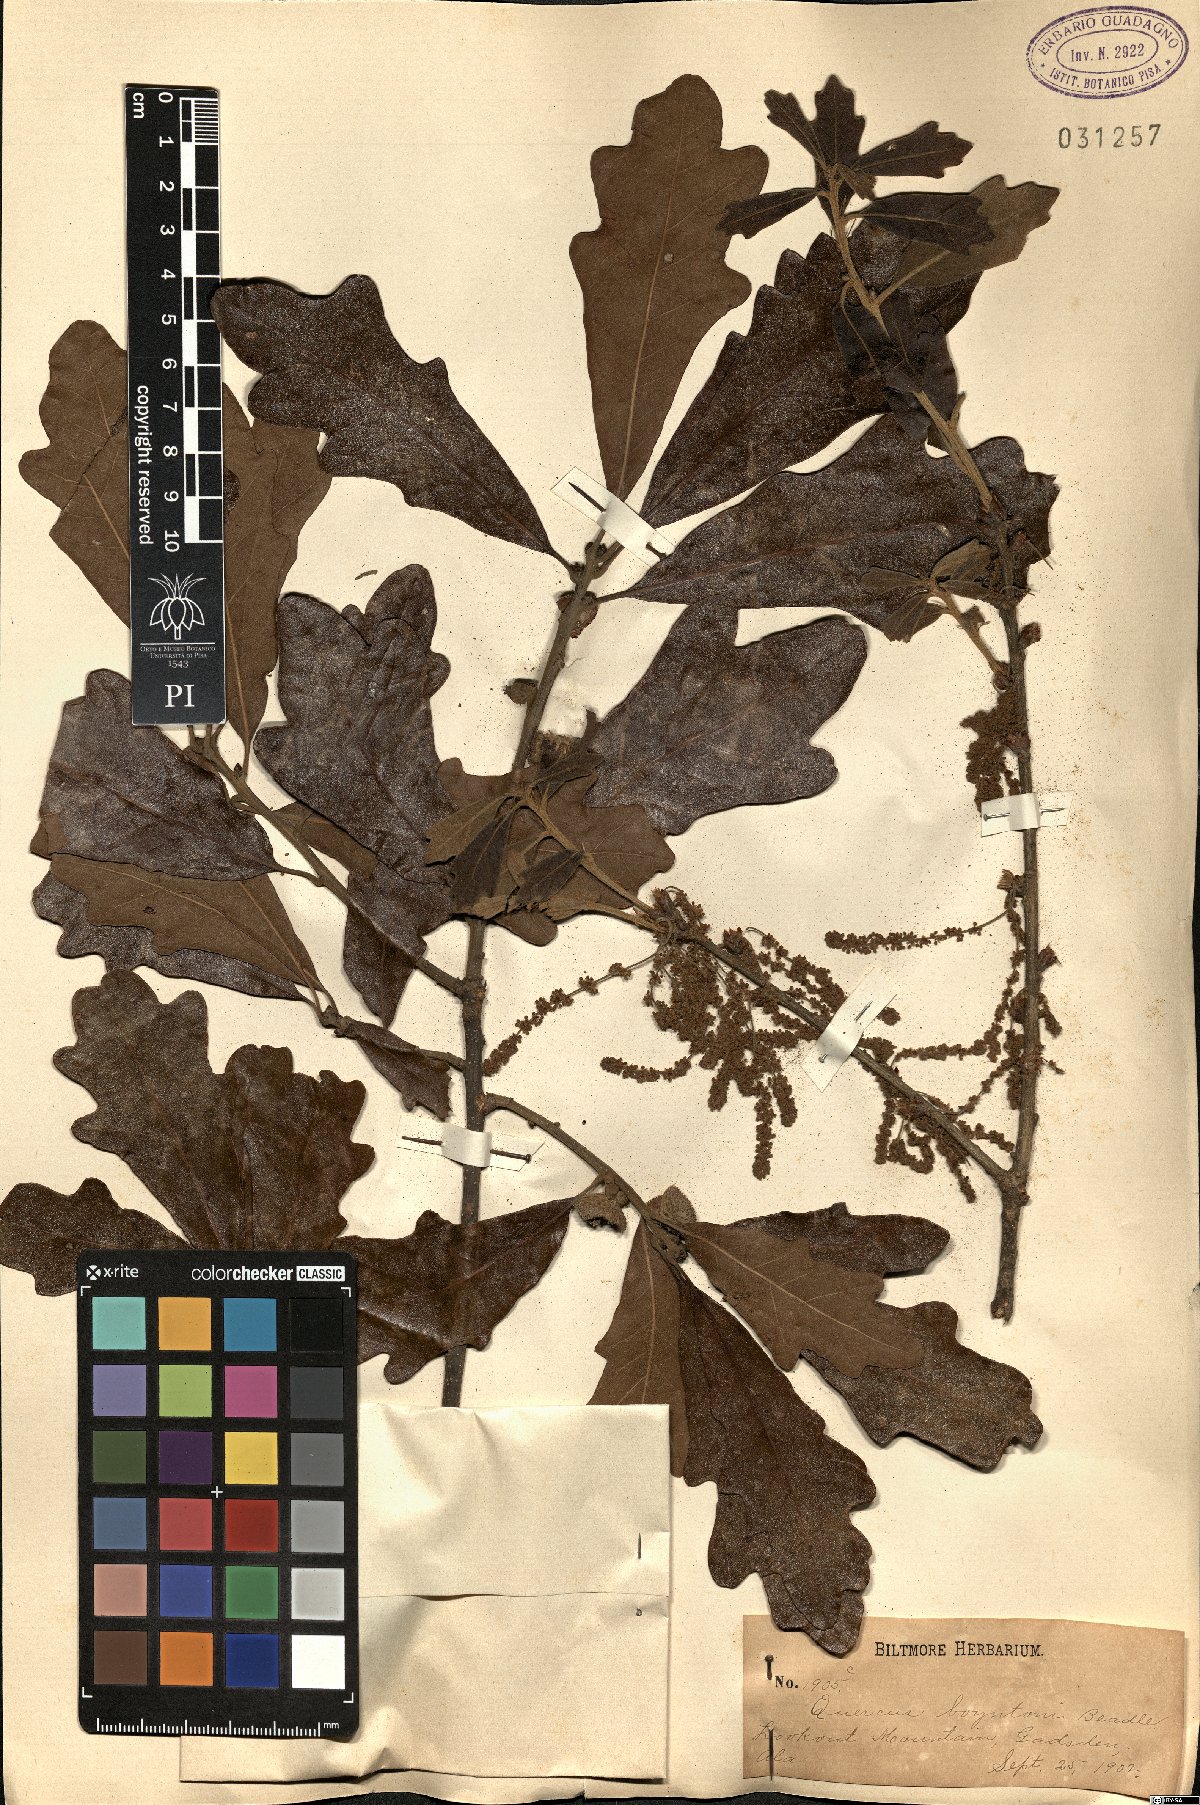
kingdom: Plantae
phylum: Tracheophyta
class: Magnoliopsida
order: Fagales
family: Fagaceae
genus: Quercus
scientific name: Quercus boyntonii
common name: Boynton oak
